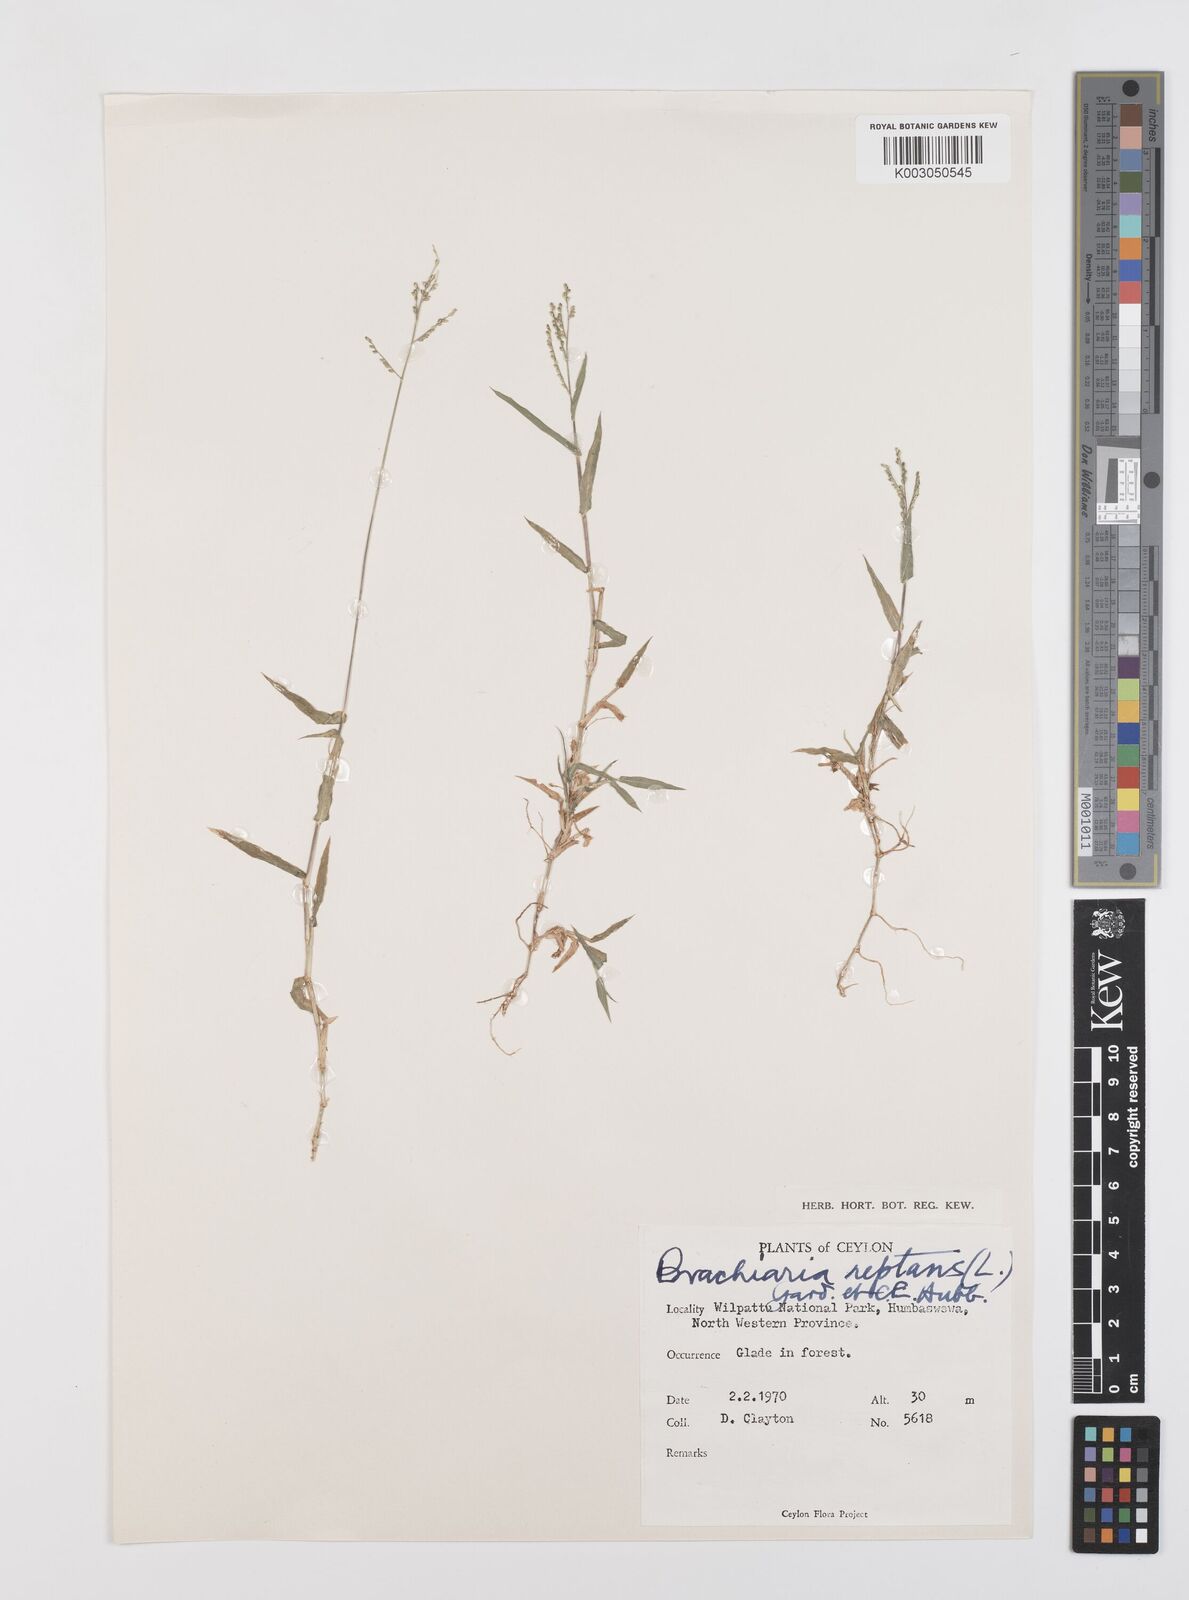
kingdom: Plantae
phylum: Tracheophyta
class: Liliopsida
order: Poales
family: Poaceae
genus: Urochloa
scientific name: Urochloa reptans
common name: Sprawling signalgrass
